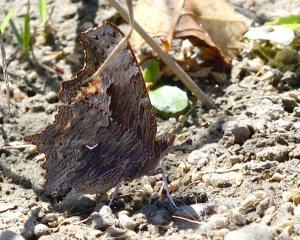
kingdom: Animalia
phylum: Arthropoda
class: Insecta
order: Lepidoptera
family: Nymphalidae
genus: Polygonia
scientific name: Polygonia progne
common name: Gray Comma
